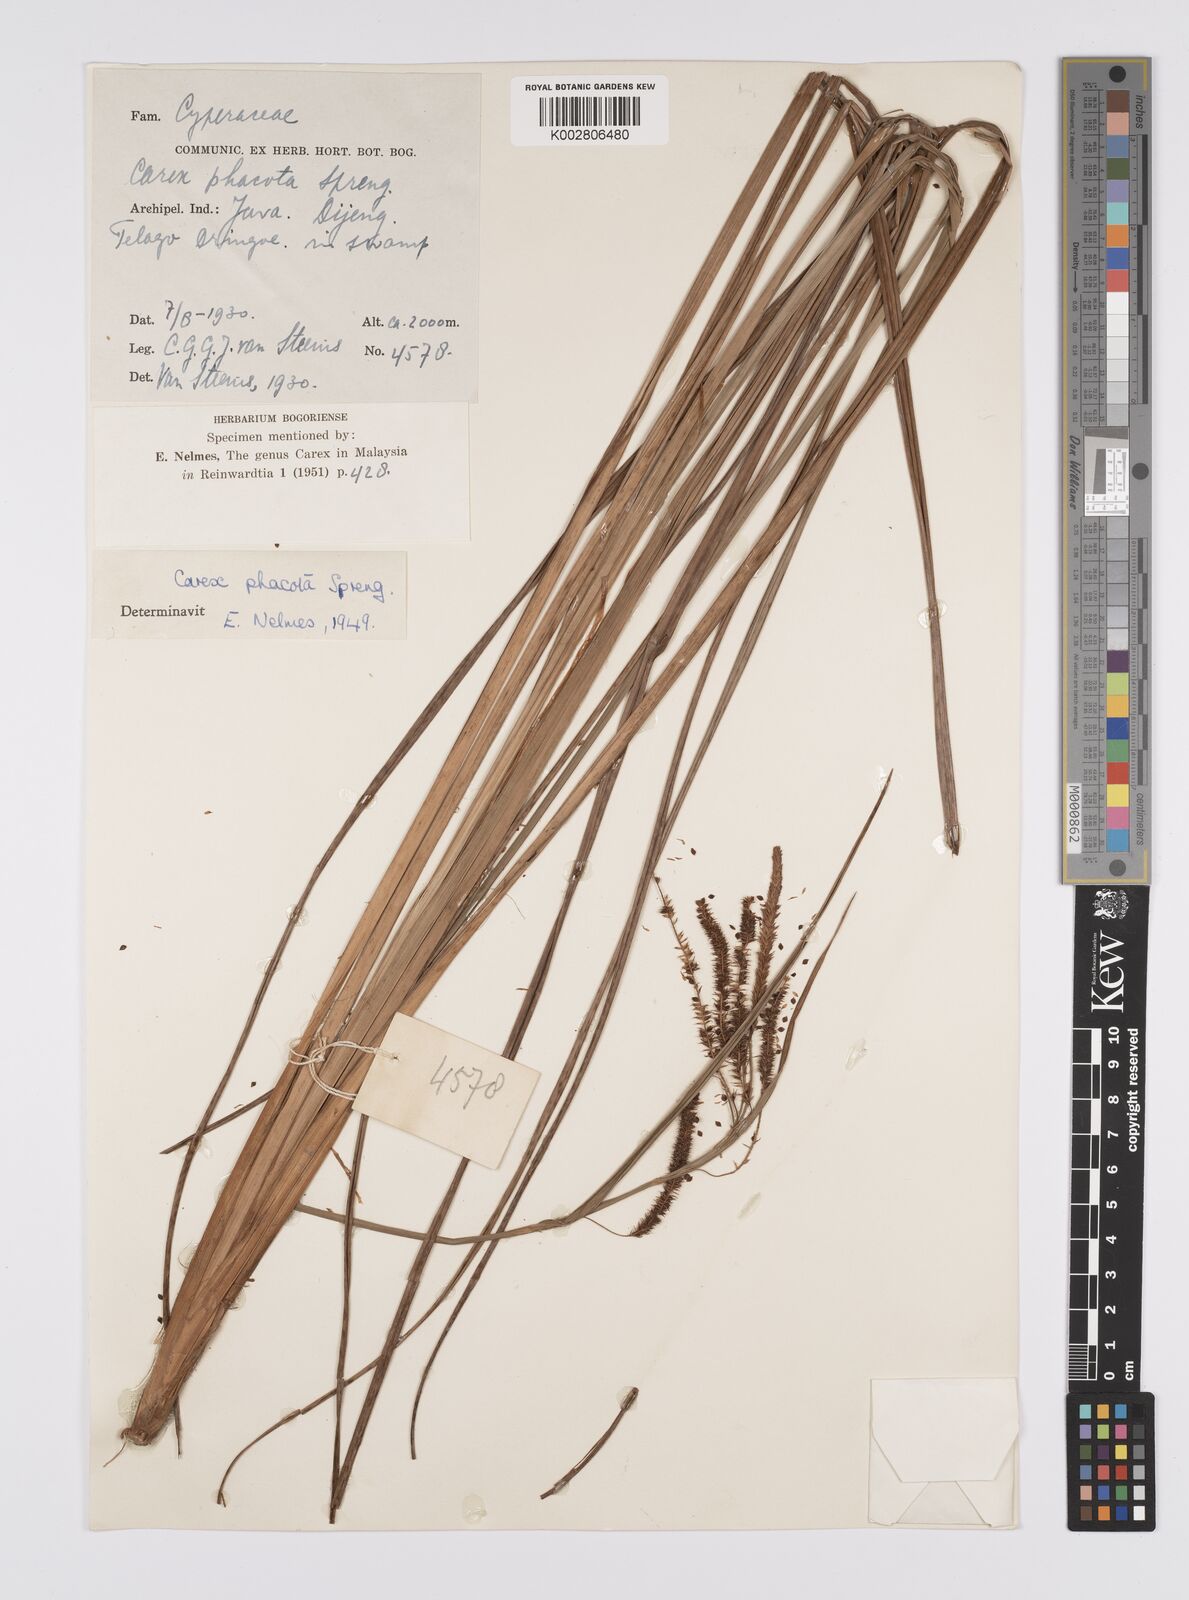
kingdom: Plantae
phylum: Tracheophyta
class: Liliopsida
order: Poales
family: Cyperaceae
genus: Carex
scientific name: Carex phacota
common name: Lakeshore sedge
